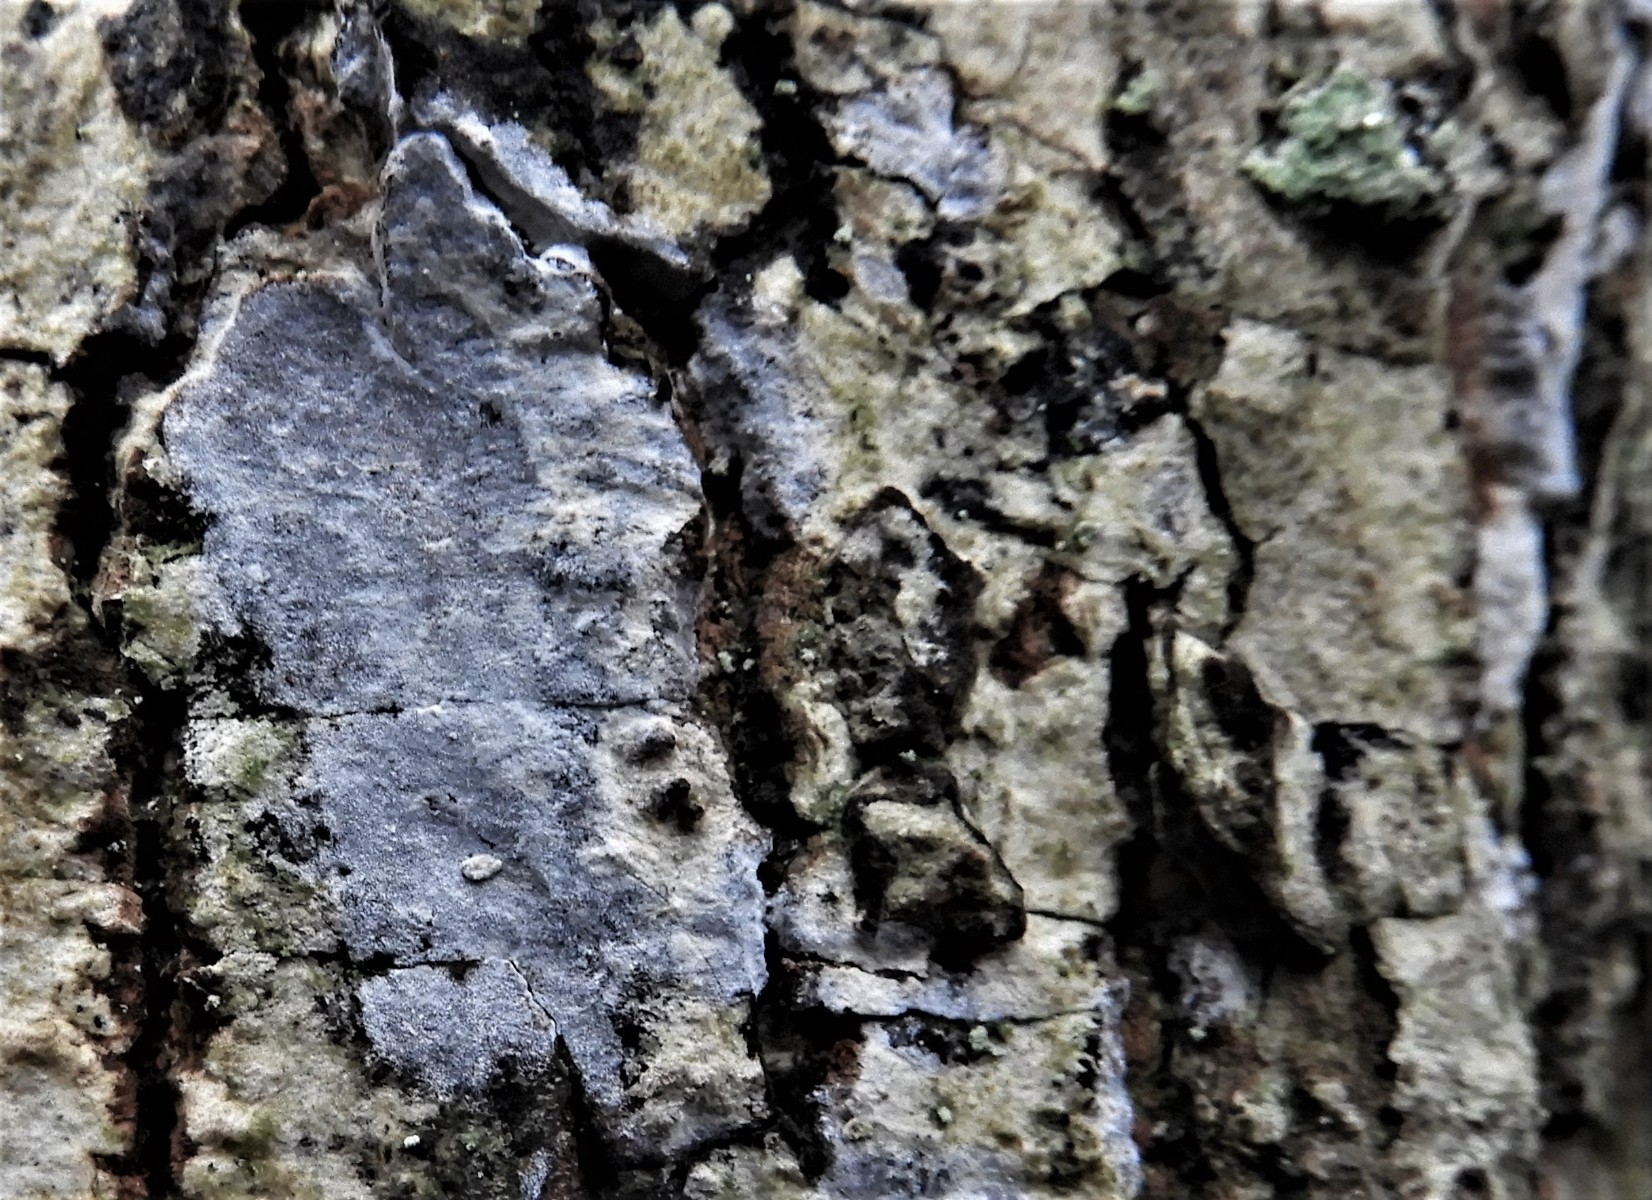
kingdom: Fungi
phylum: Basidiomycota
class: Agaricomycetes
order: Agaricales
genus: Dendrothele
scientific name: Dendrothele acerina
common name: navr-kalkplet
